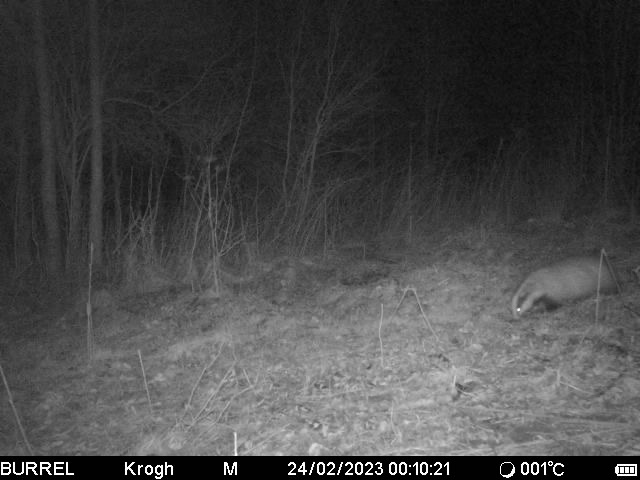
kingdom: Animalia
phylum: Chordata
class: Mammalia
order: Carnivora
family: Mustelidae
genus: Meles
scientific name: Meles meles
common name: Grævling
